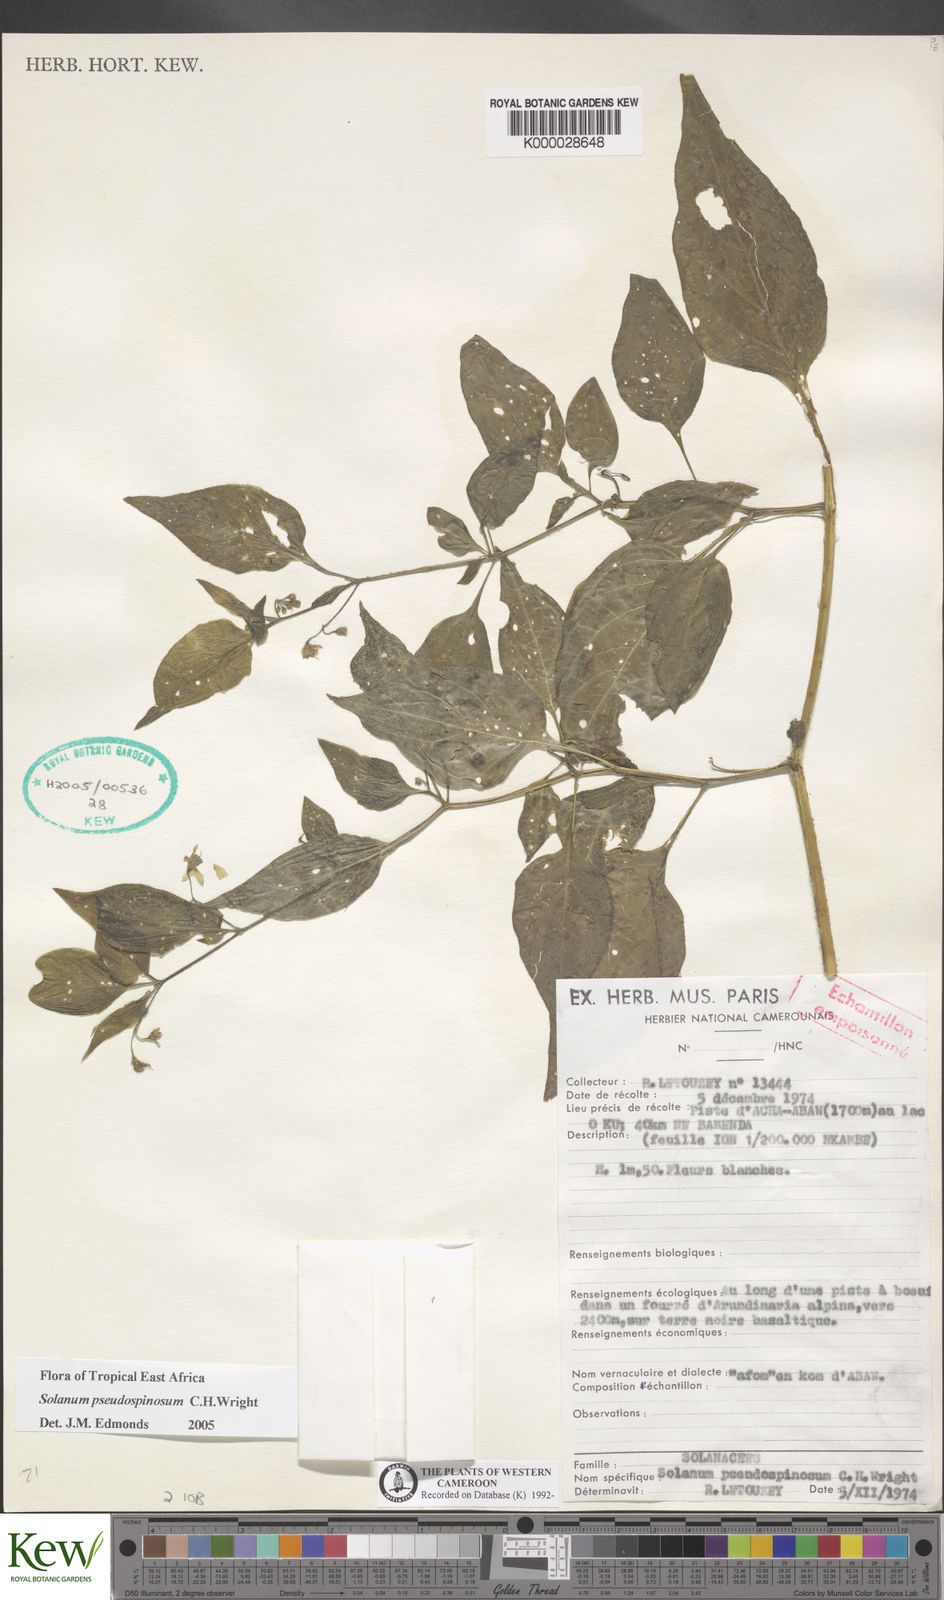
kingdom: Plantae
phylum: Tracheophyta
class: Magnoliopsida
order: Solanales
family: Solanaceae
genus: Solanum
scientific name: Solanum pseudospinosum
